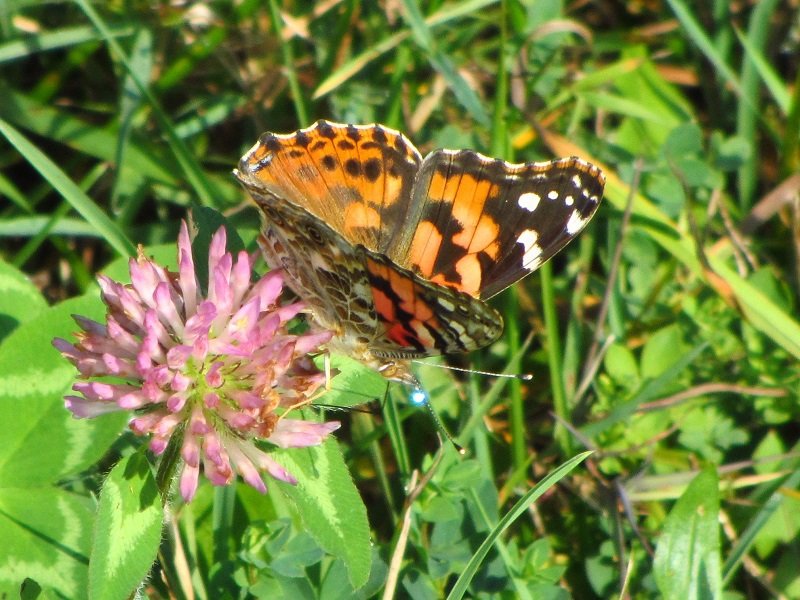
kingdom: Animalia
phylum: Arthropoda
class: Insecta
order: Lepidoptera
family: Nymphalidae
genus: Vanessa
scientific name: Vanessa cardui
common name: Painted Lady
